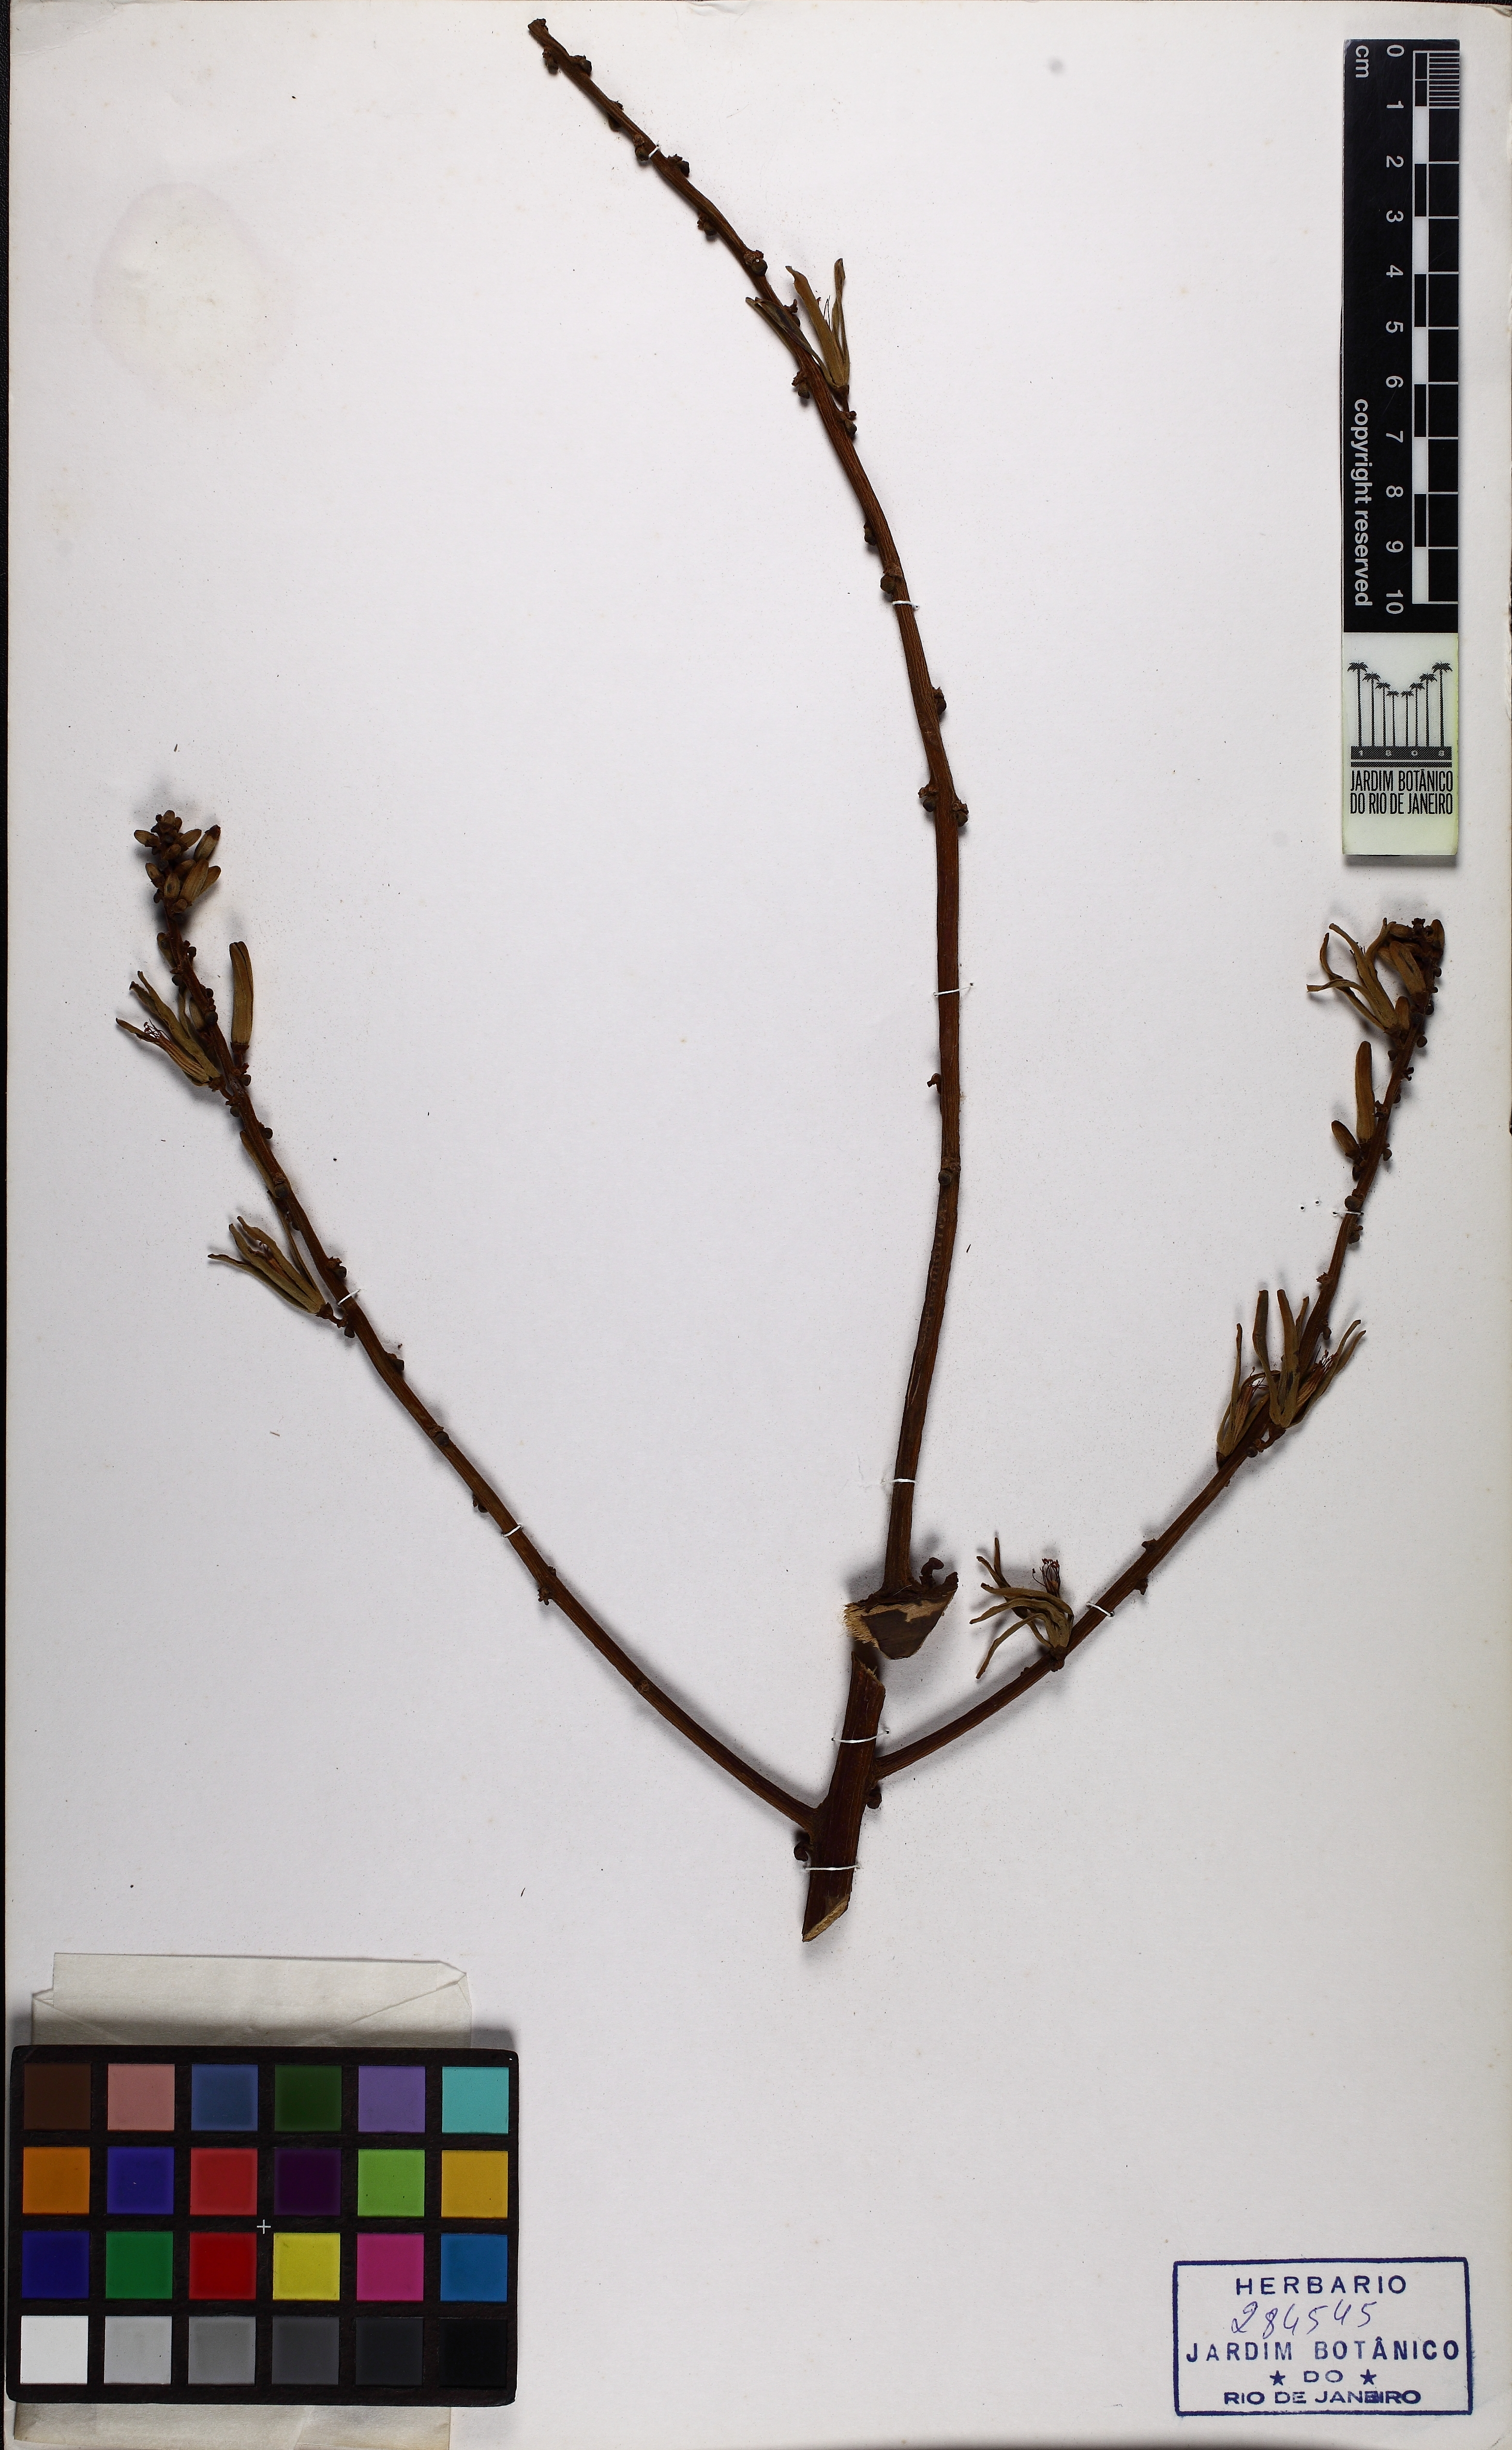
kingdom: Plantae
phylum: Tracheophyta
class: Magnoliopsida
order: Sapindales
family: Simaroubaceae
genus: Homalolepis
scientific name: Homalolepis cedron
